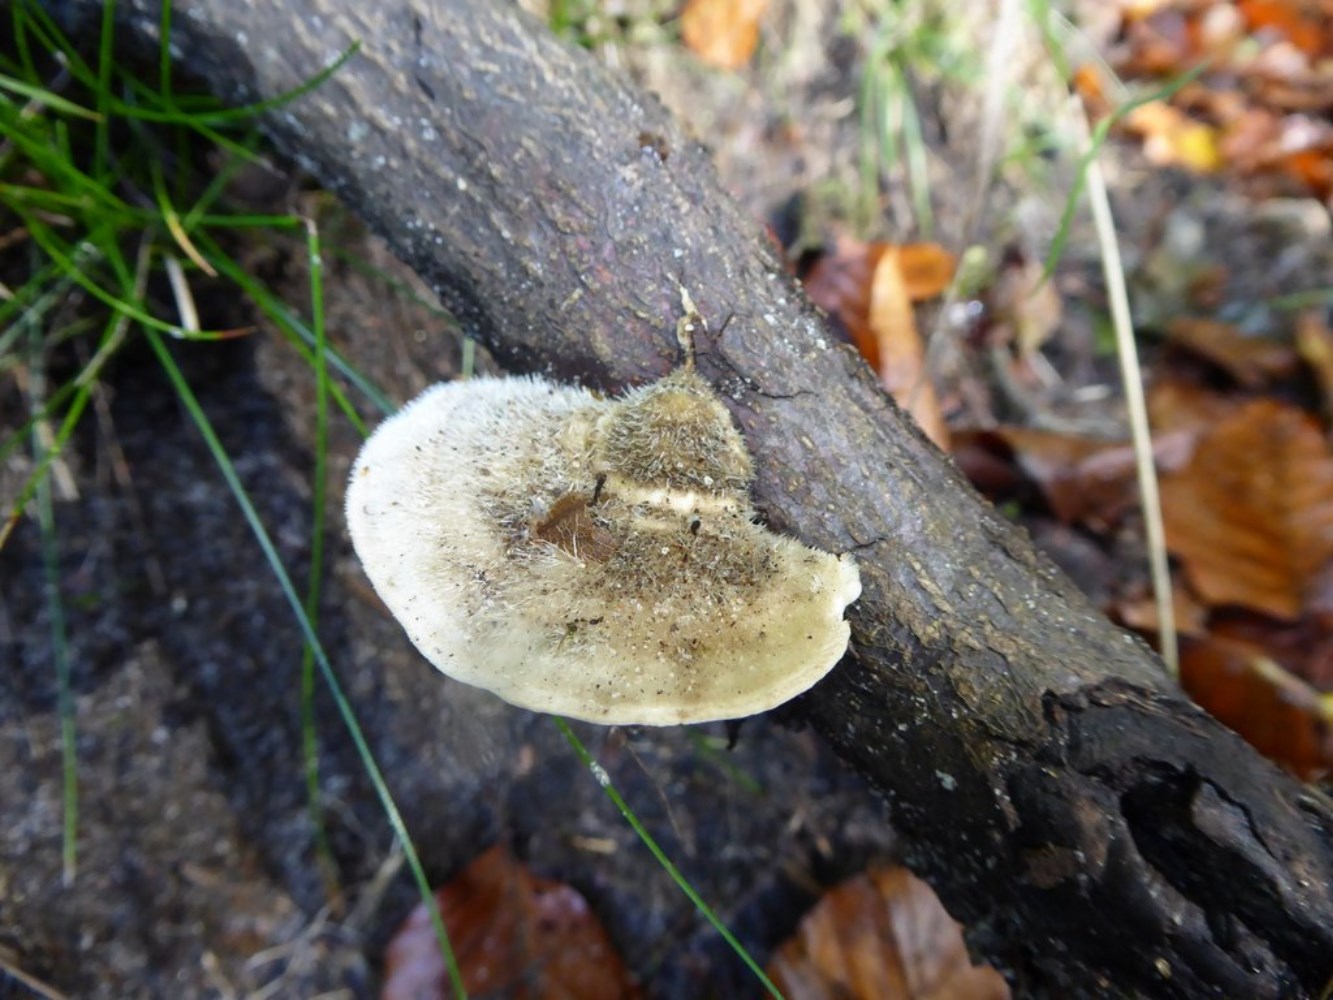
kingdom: Fungi
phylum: Basidiomycota
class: Agaricomycetes
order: Polyporales
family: Polyporaceae
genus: Trametes
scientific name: Trametes hirsuta
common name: håret læderporesvamp
